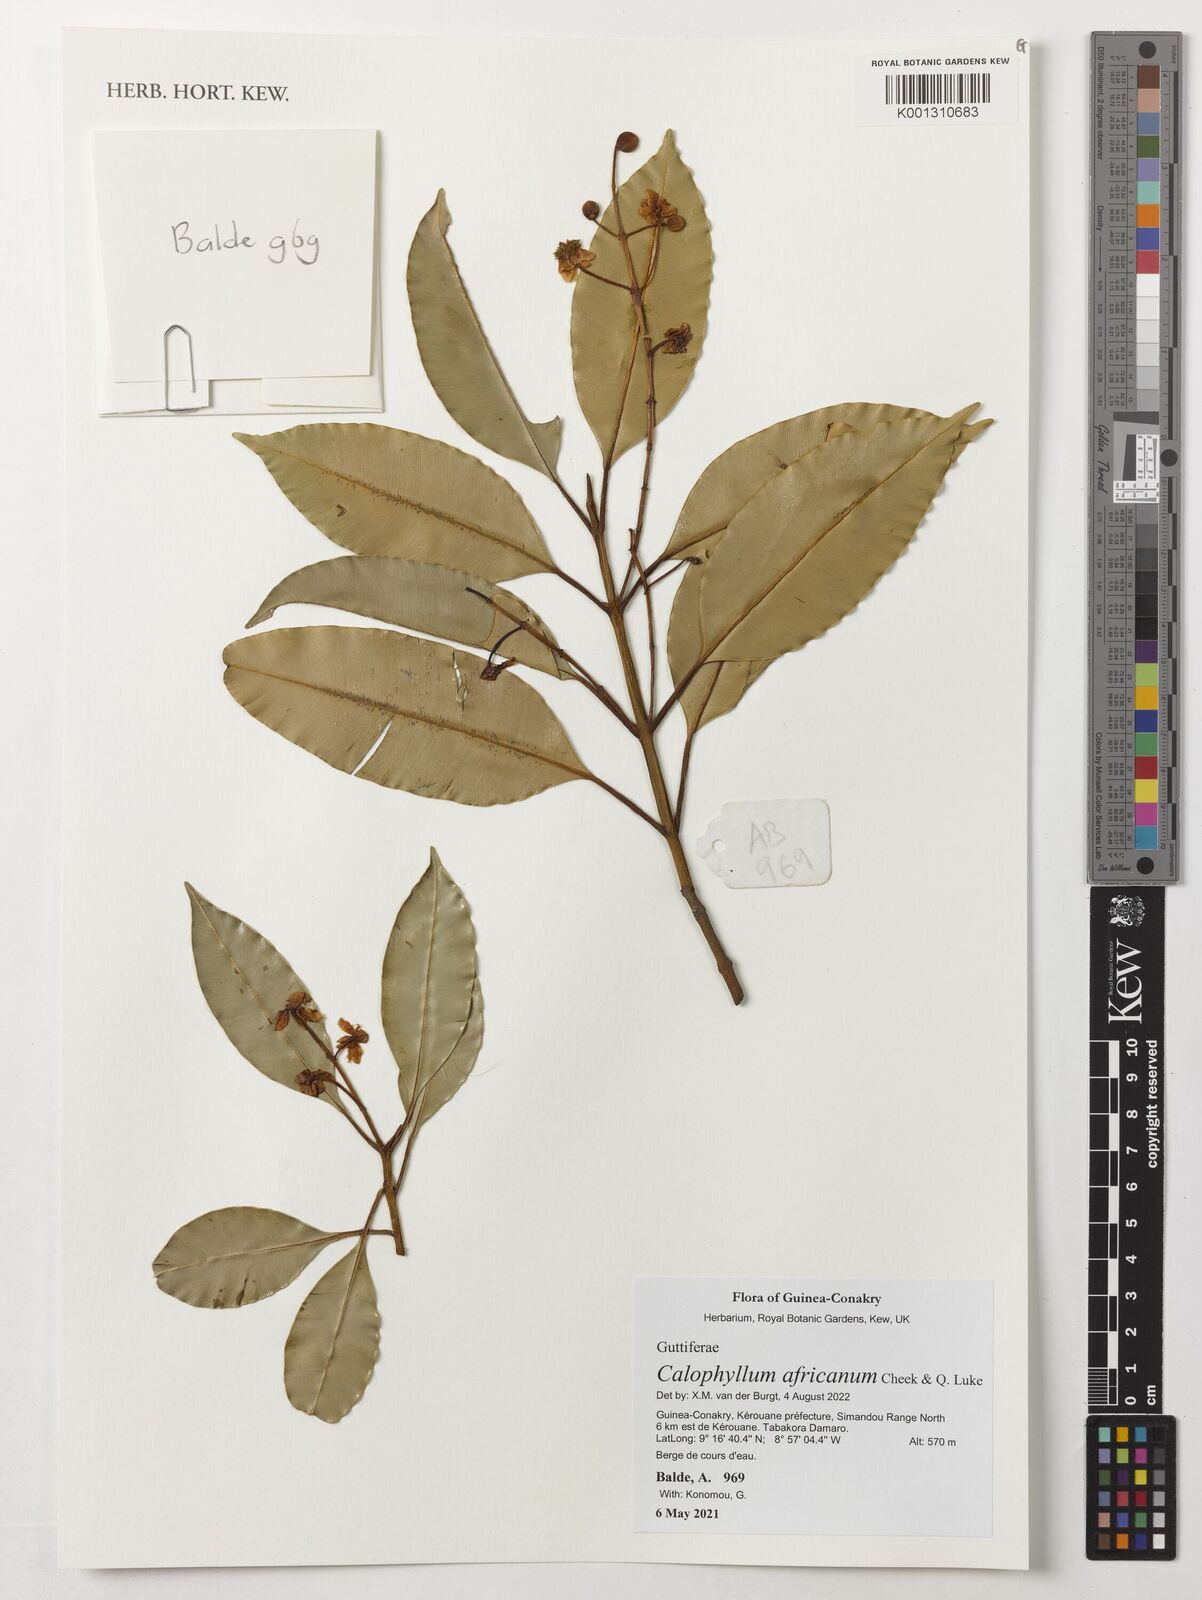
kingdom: Plantae
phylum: Tracheophyta
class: Magnoliopsida
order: Malpighiales
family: Calophyllaceae
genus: Calophyllum
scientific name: Calophyllum africanum
